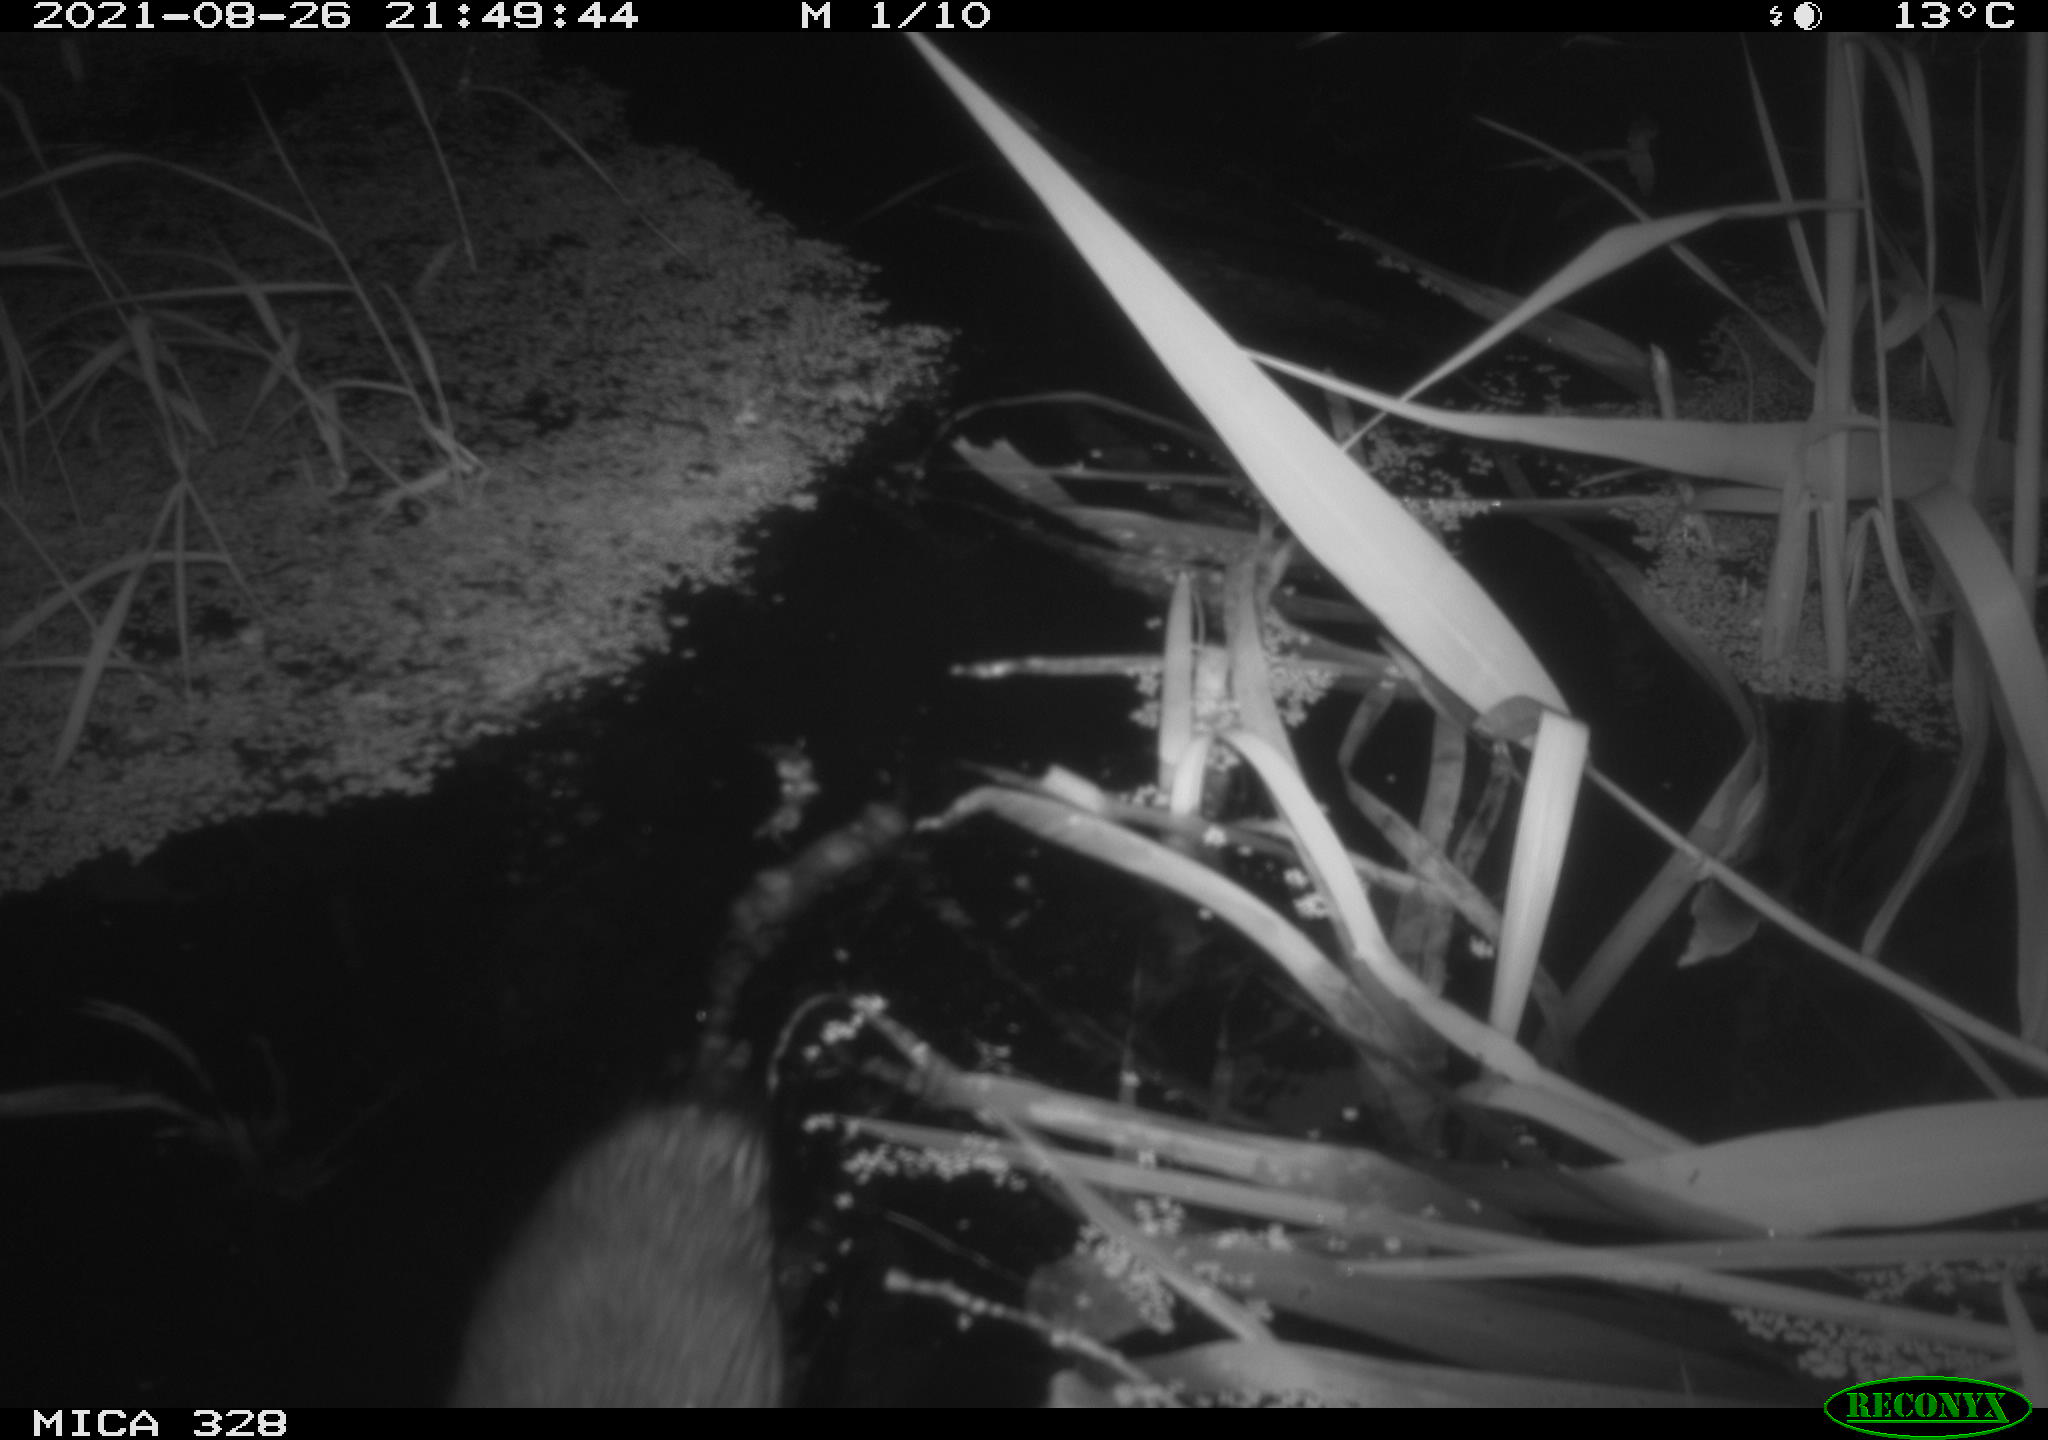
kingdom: Animalia
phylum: Chordata
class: Mammalia
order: Rodentia
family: Cricetidae
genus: Ondatra
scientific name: Ondatra zibethicus
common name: Muskrat
